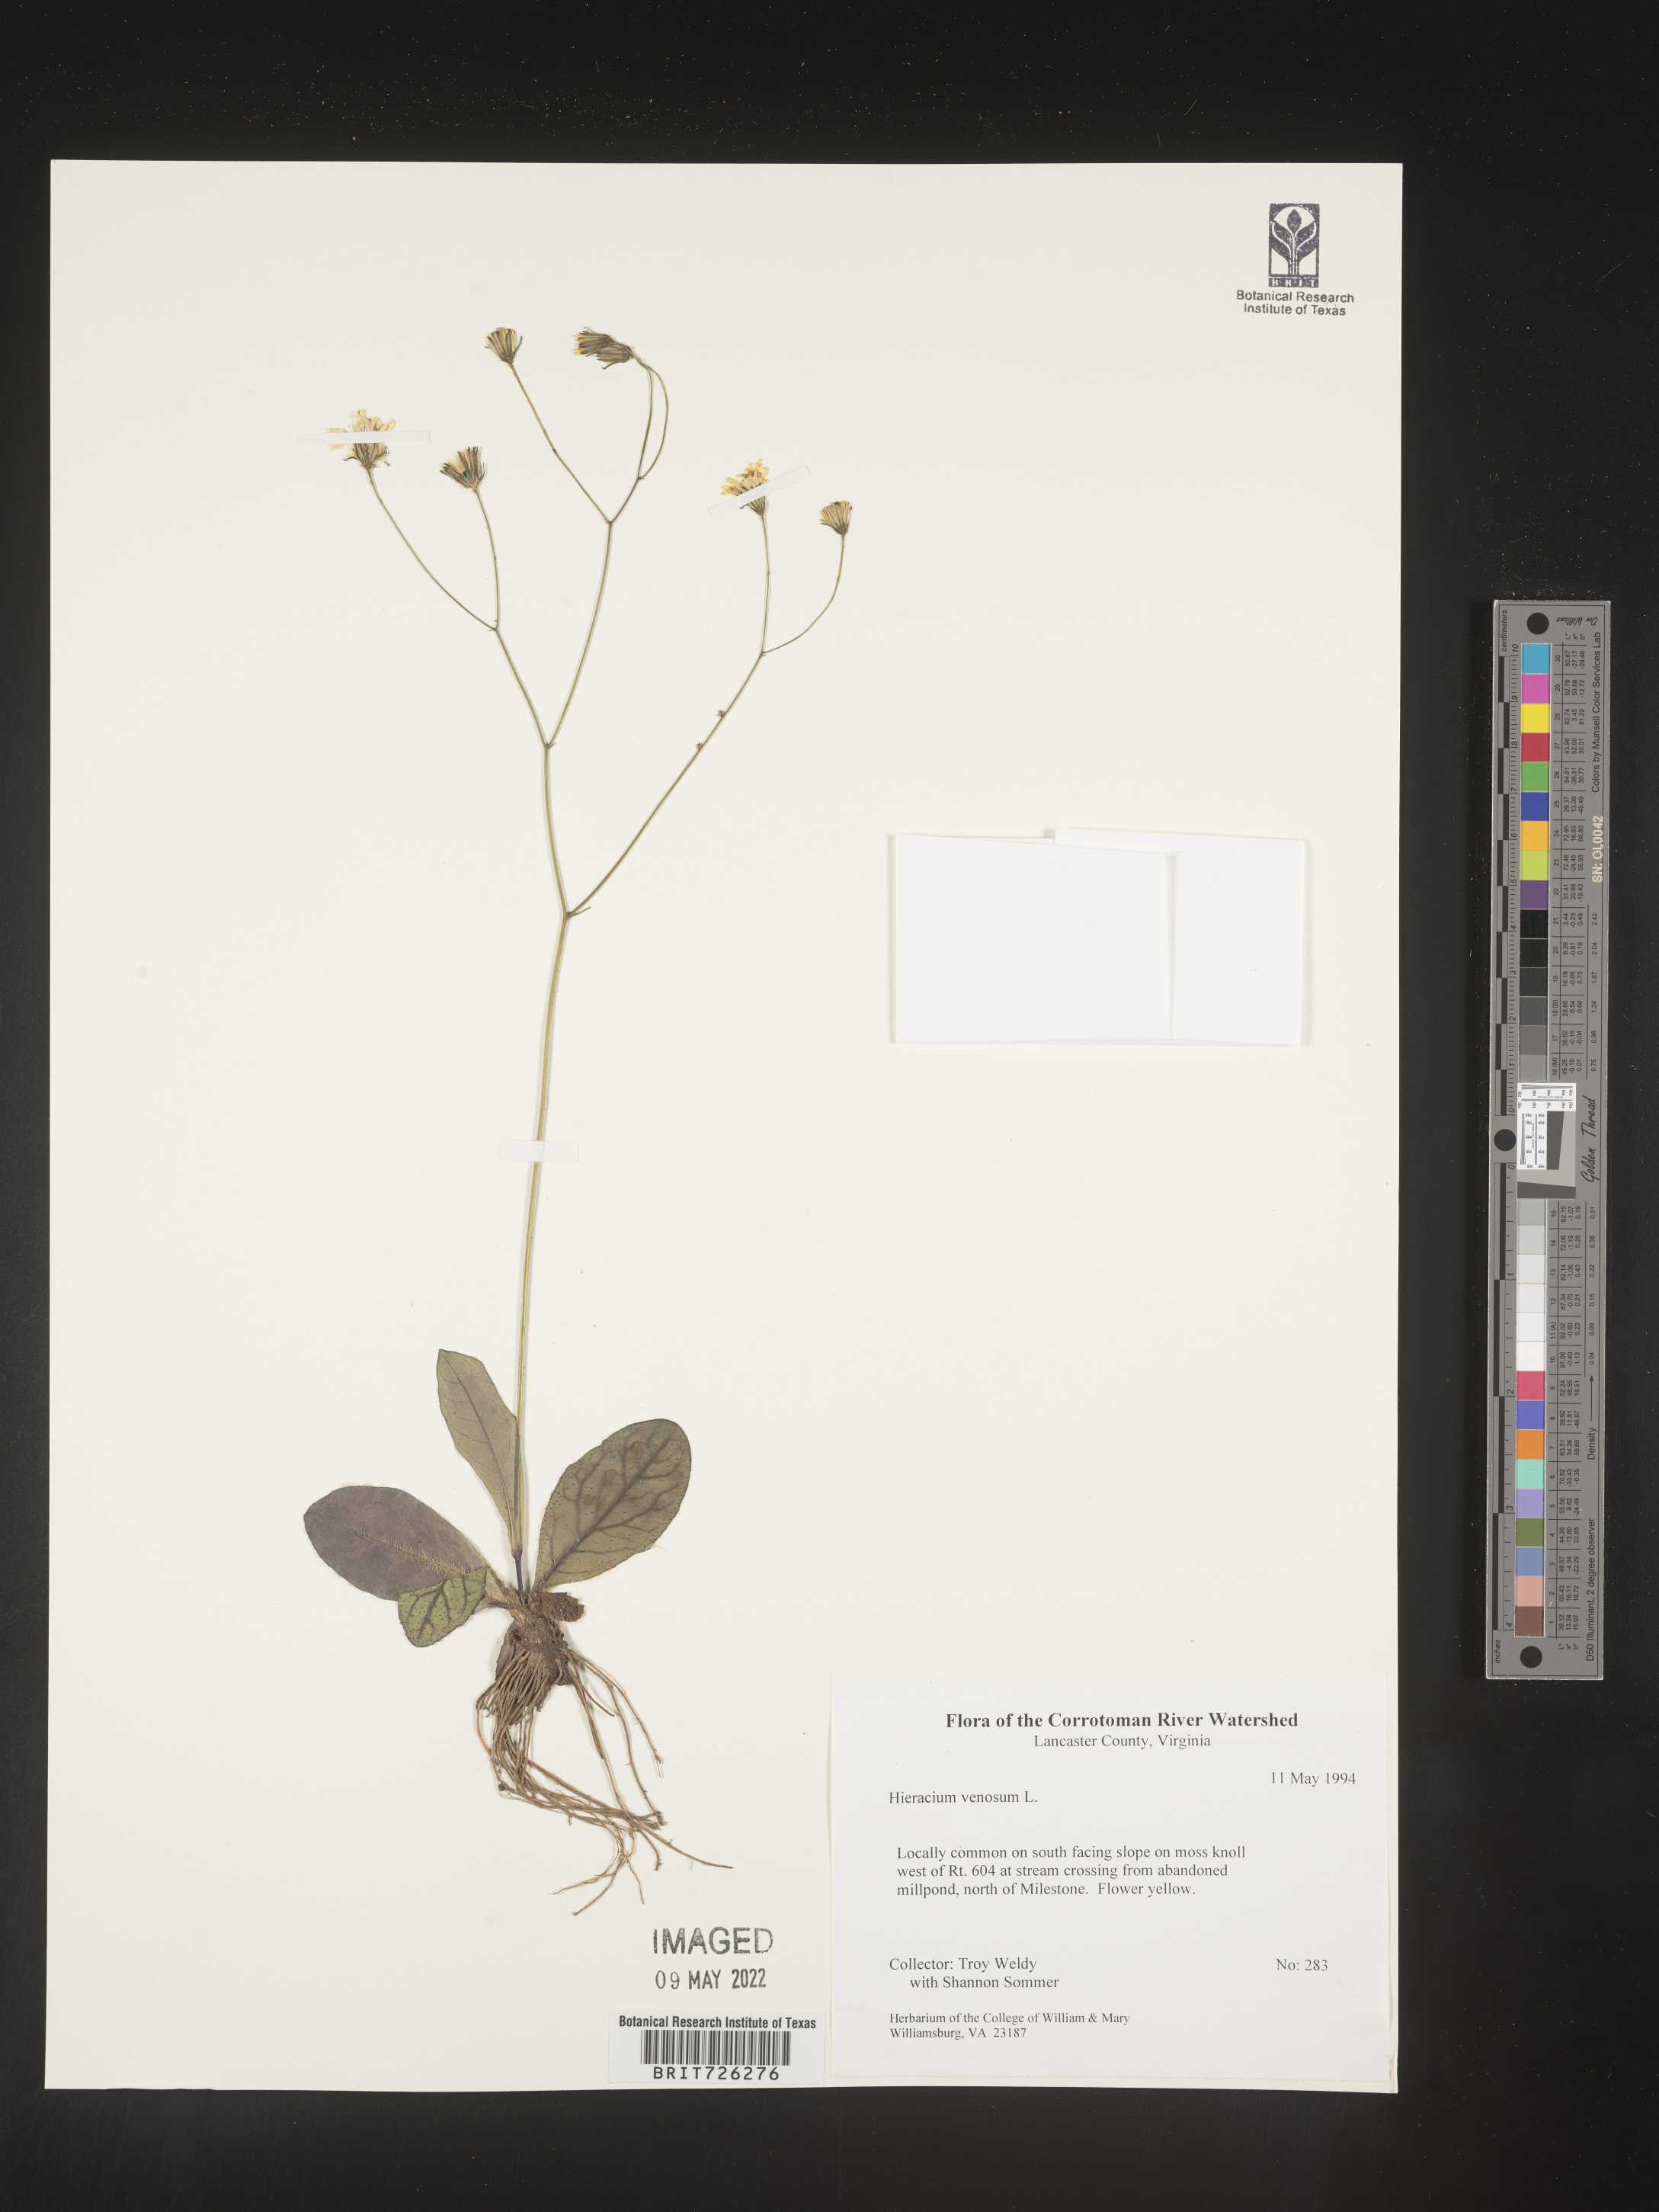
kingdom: Plantae
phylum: Tracheophyta
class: Magnoliopsida
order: Asterales
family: Asteraceae
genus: Hieracium
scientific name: Hieracium
